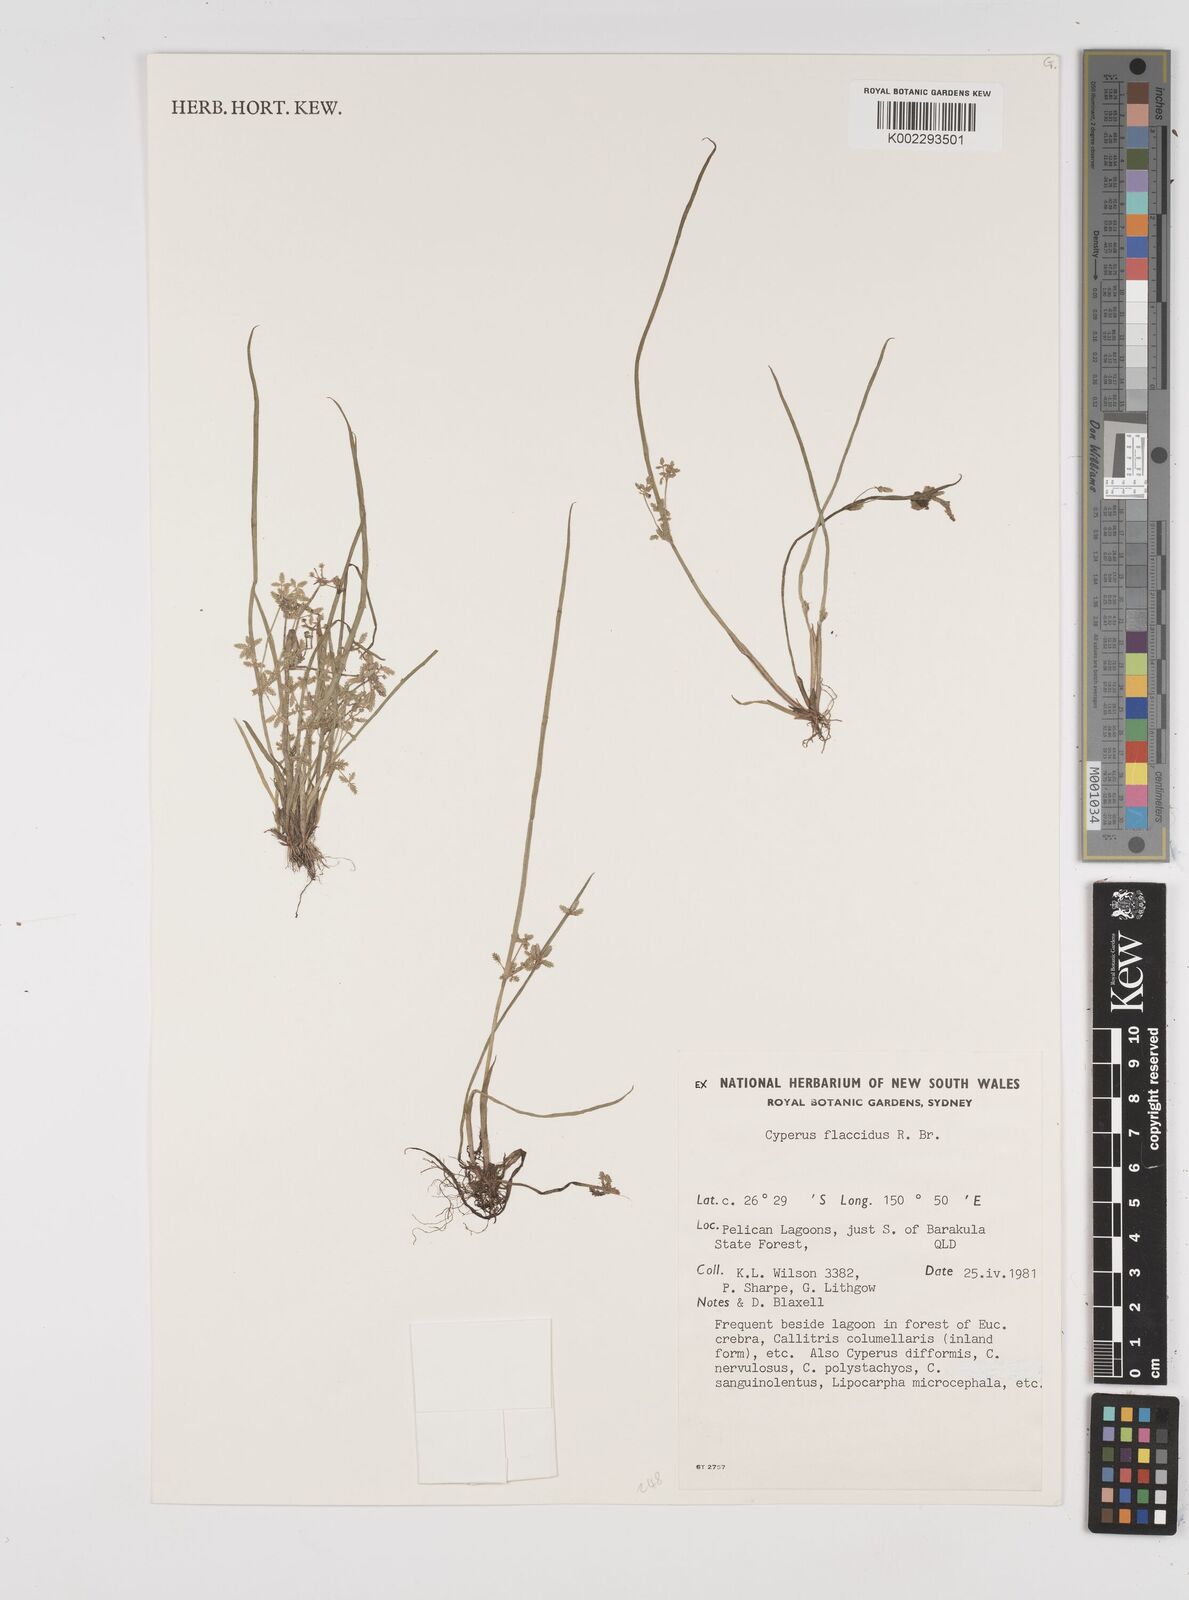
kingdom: Plantae
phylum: Tracheophyta
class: Liliopsida
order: Poales
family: Cyperaceae
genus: Cyperus
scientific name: Cyperus flaccidus
